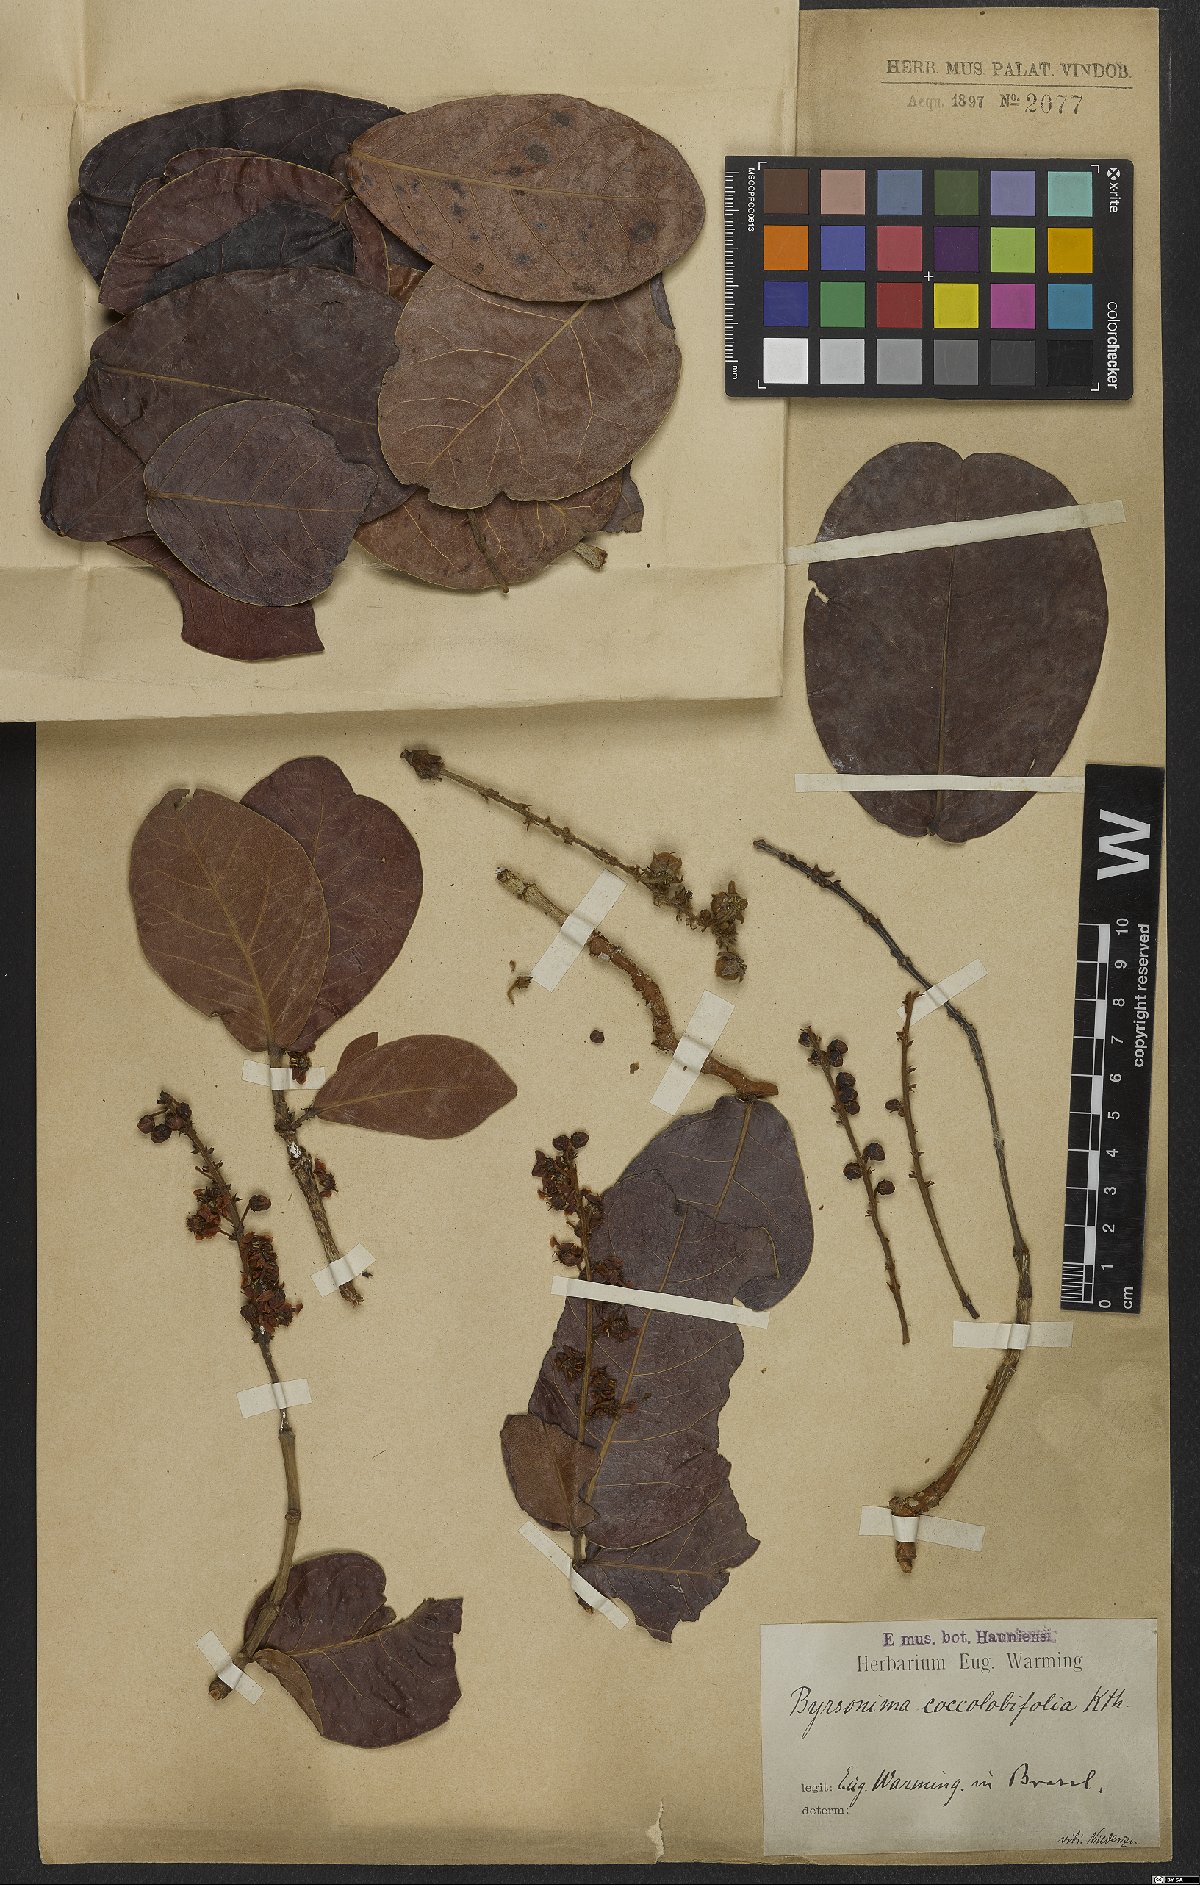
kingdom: Plantae
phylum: Tracheophyta
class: Magnoliopsida
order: Malpighiales
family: Malpighiaceae
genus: Byrsonima
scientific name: Byrsonima coccolobifolia
